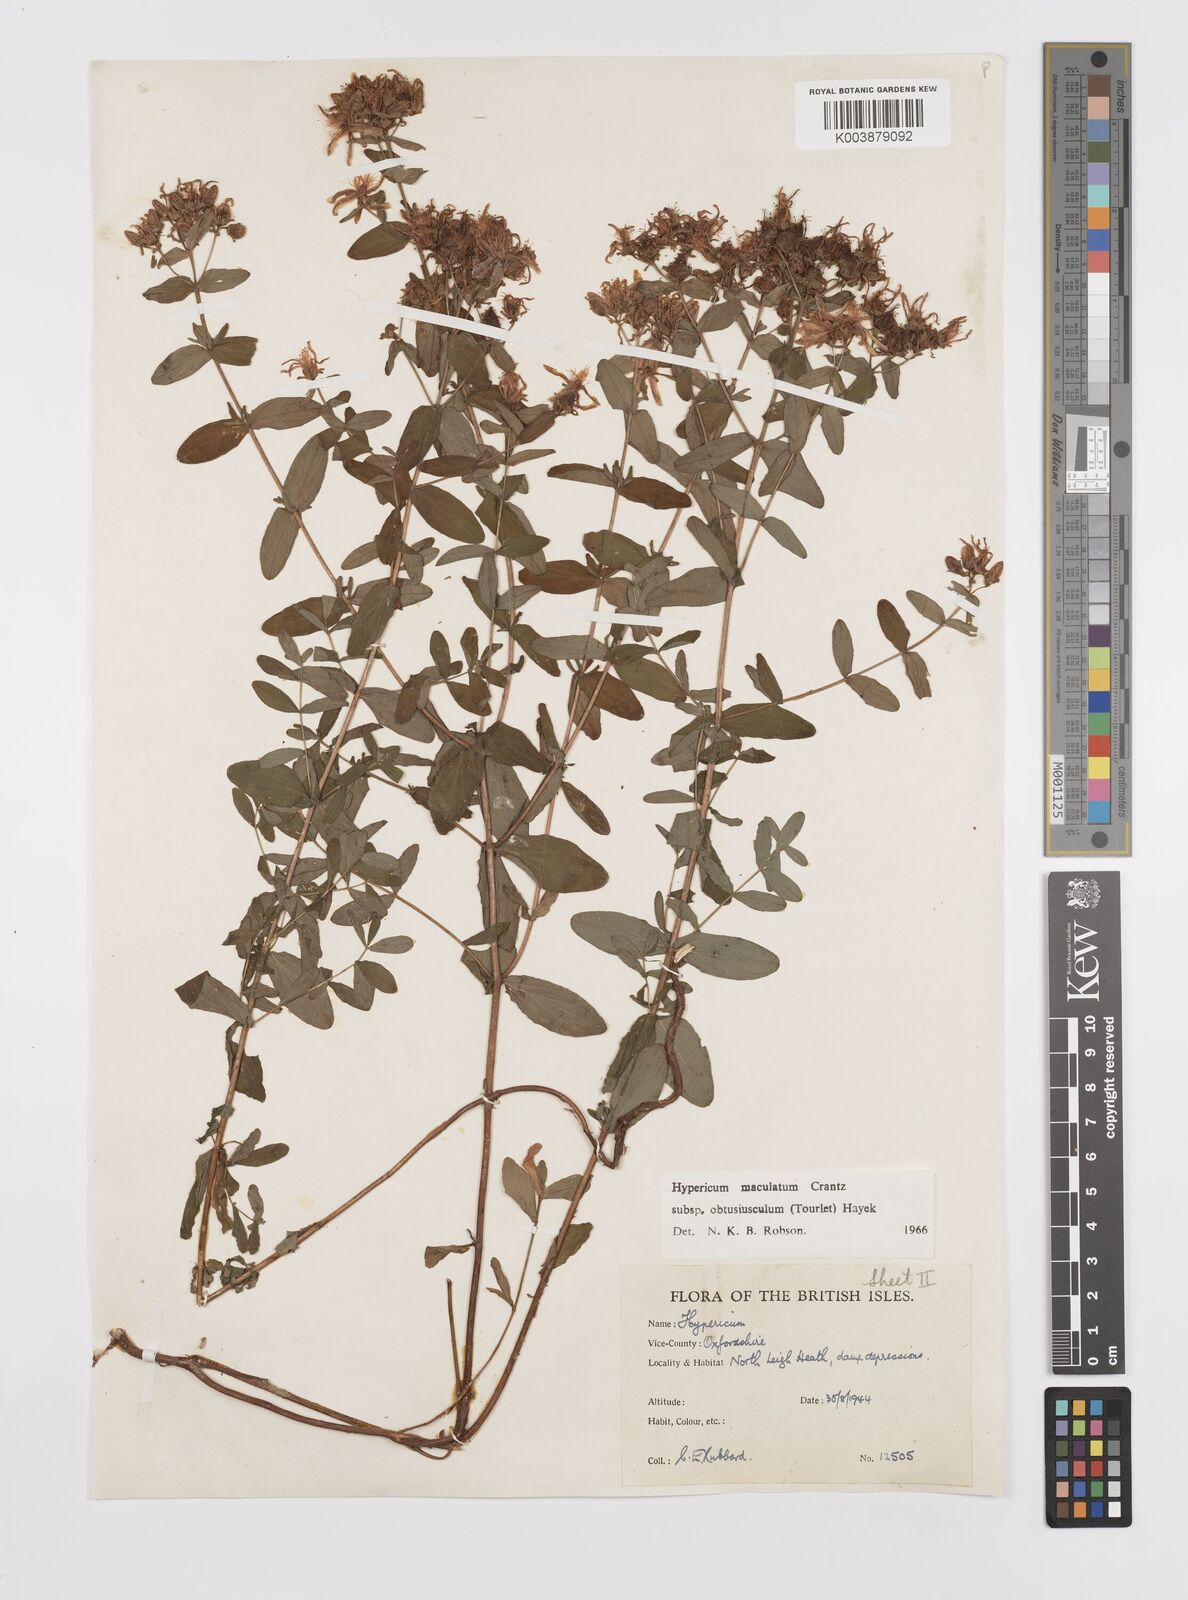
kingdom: Plantae
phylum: Tracheophyta
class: Magnoliopsida
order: Malpighiales
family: Hypericaceae
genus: Hypericum
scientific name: Hypericum dubium
